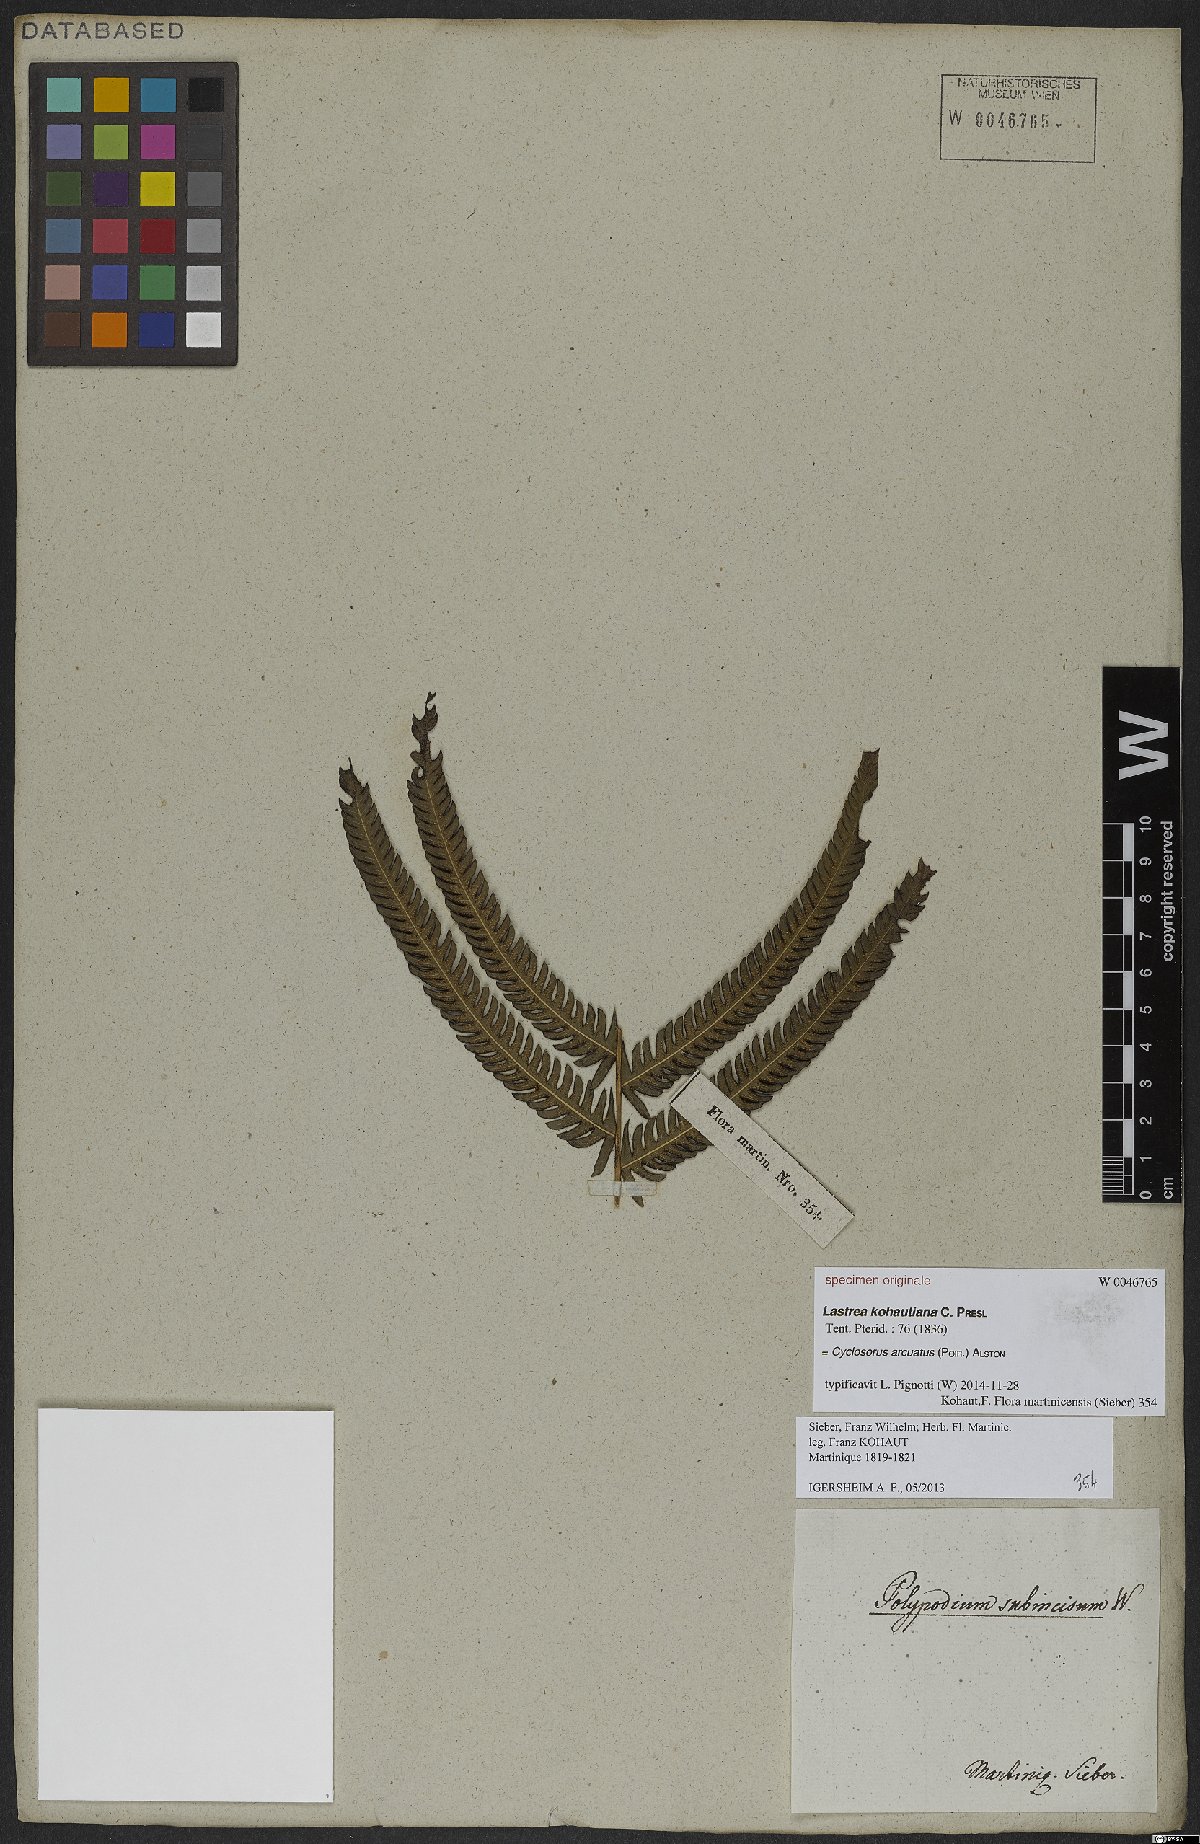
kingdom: Plantae
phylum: Tracheophyta
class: Polypodiopsida
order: Polypodiales
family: Pteridaceae
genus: Adiantum
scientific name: Adiantum philippense
